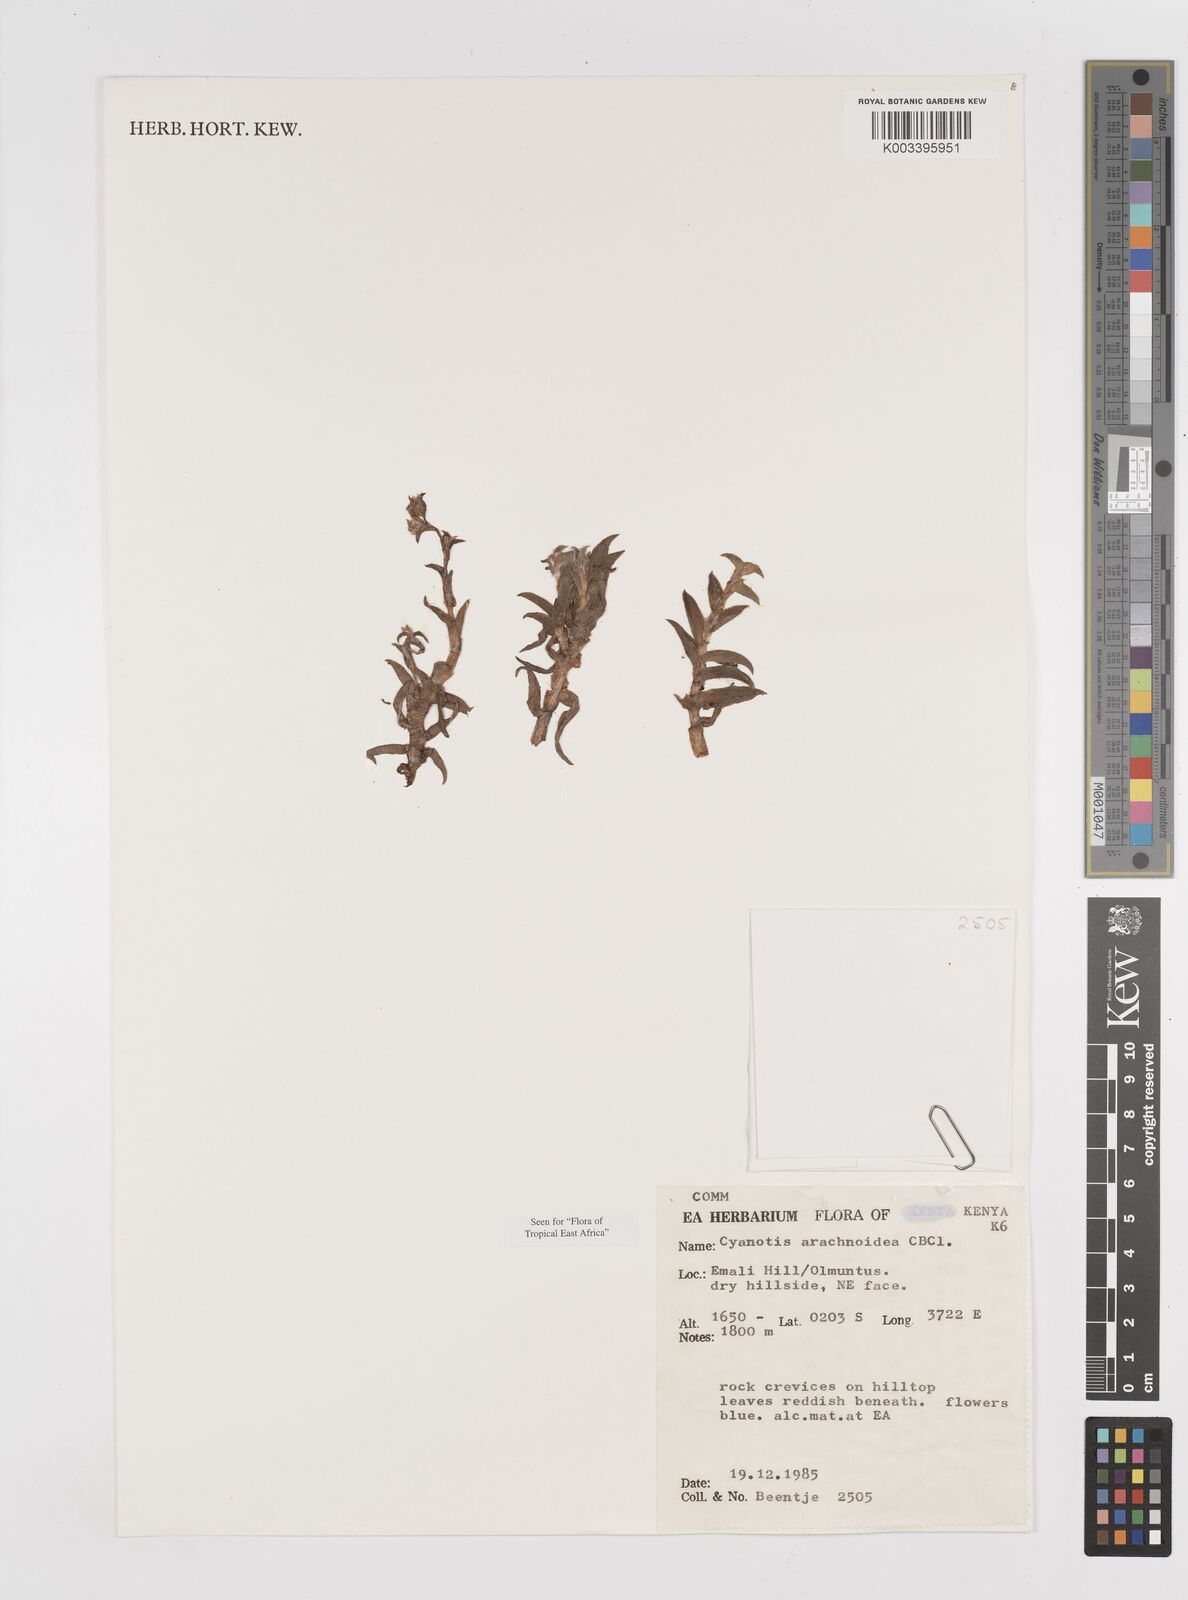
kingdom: Plantae
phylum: Tracheophyta
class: Liliopsida
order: Commelinales
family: Commelinaceae
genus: Cyanotis
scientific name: Cyanotis arachnoidea
